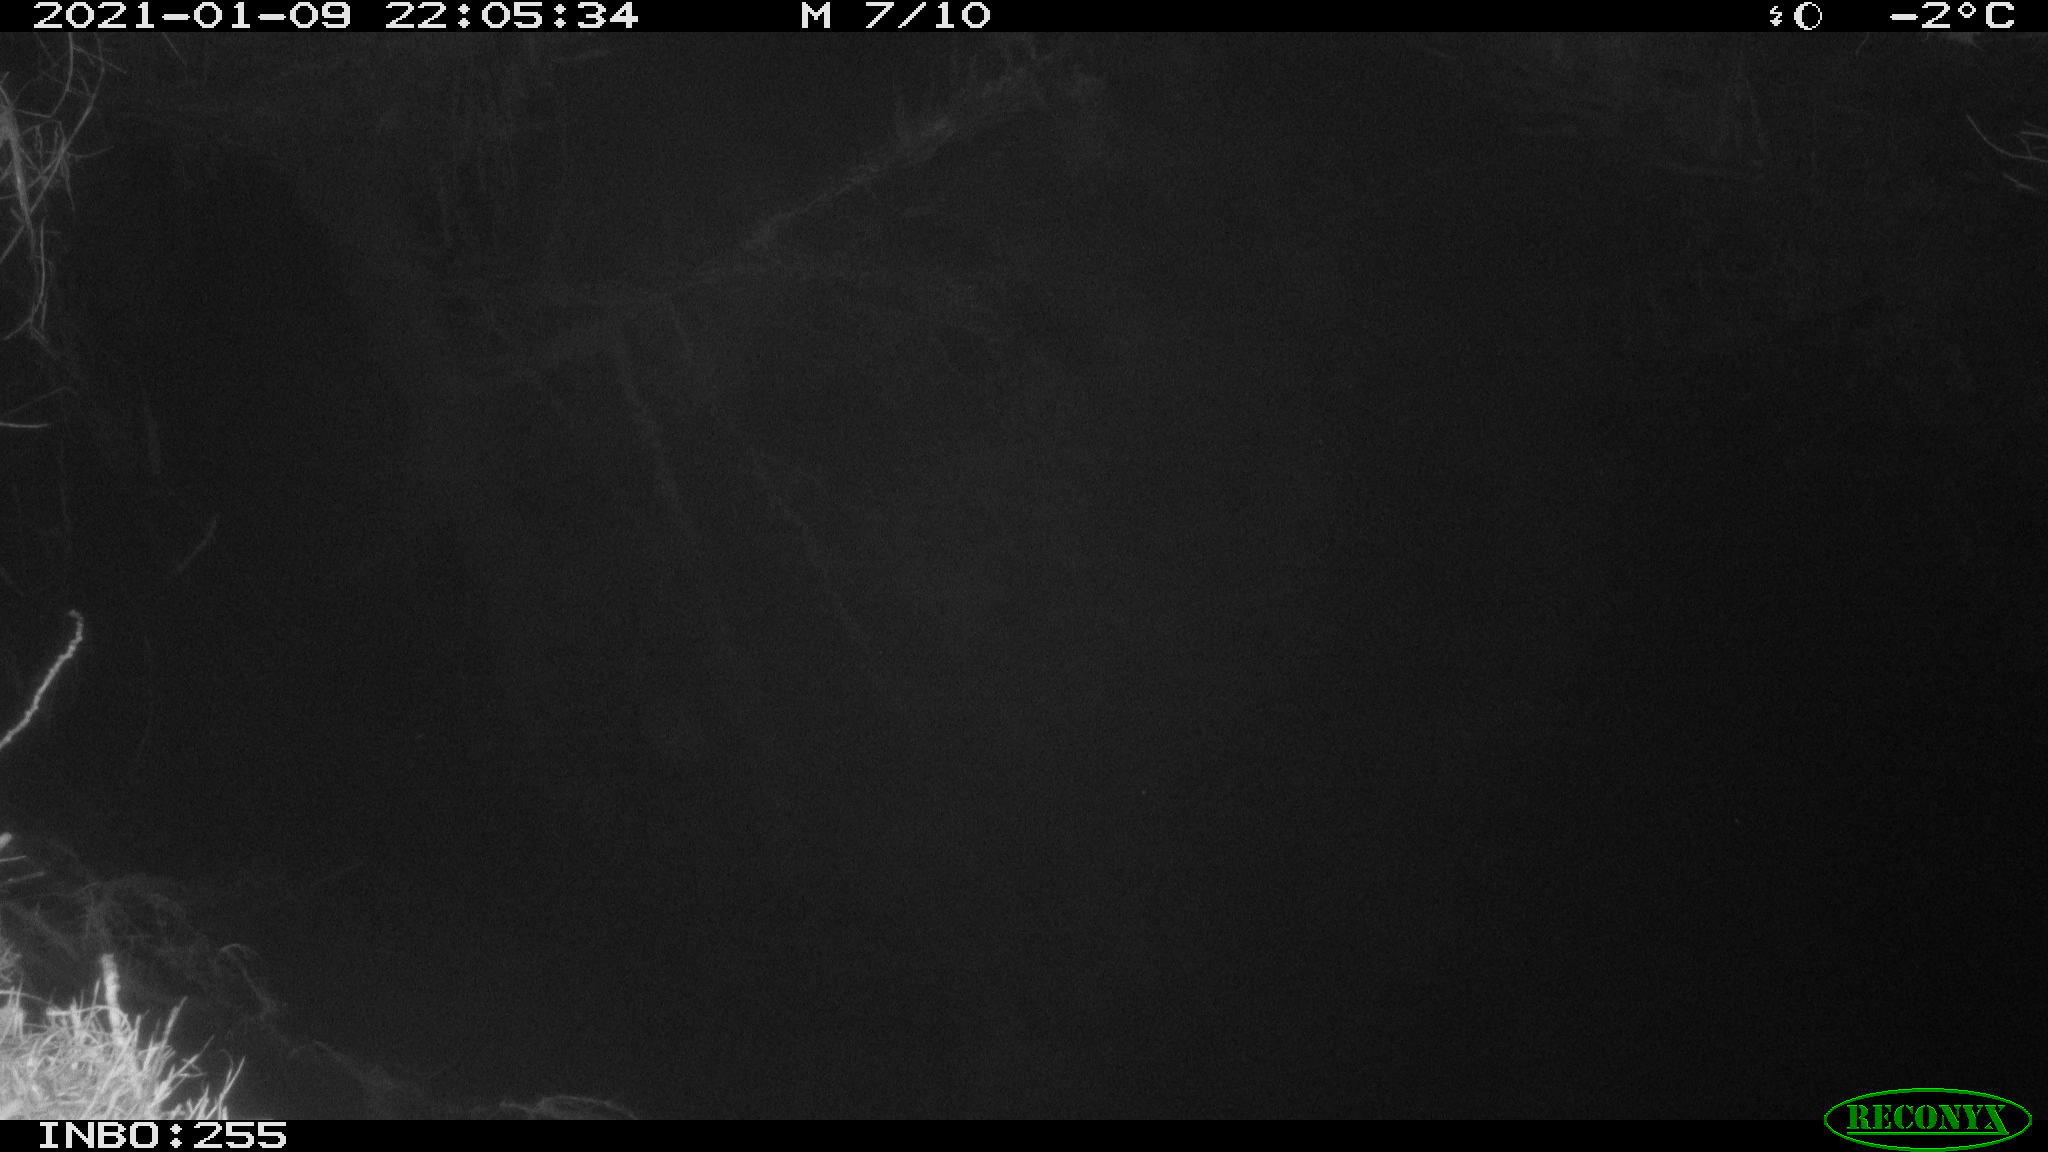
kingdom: Animalia
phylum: Chordata
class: Mammalia
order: Rodentia
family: Muridae
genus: Rattus
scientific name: Rattus norvegicus
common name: Brown rat
